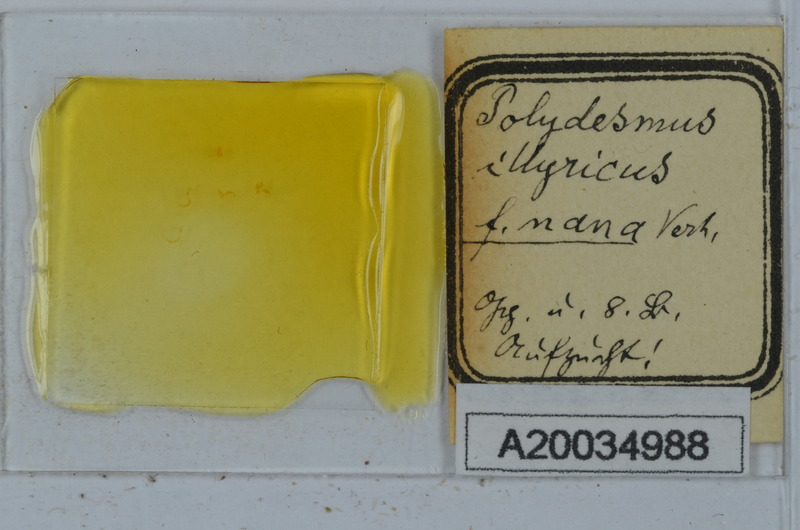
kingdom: Animalia
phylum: Arthropoda
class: Diplopoda
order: Polydesmida
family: Polydesmidae
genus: Polydesmus
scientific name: Polydesmus complanatus
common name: Flat-backed millipede
